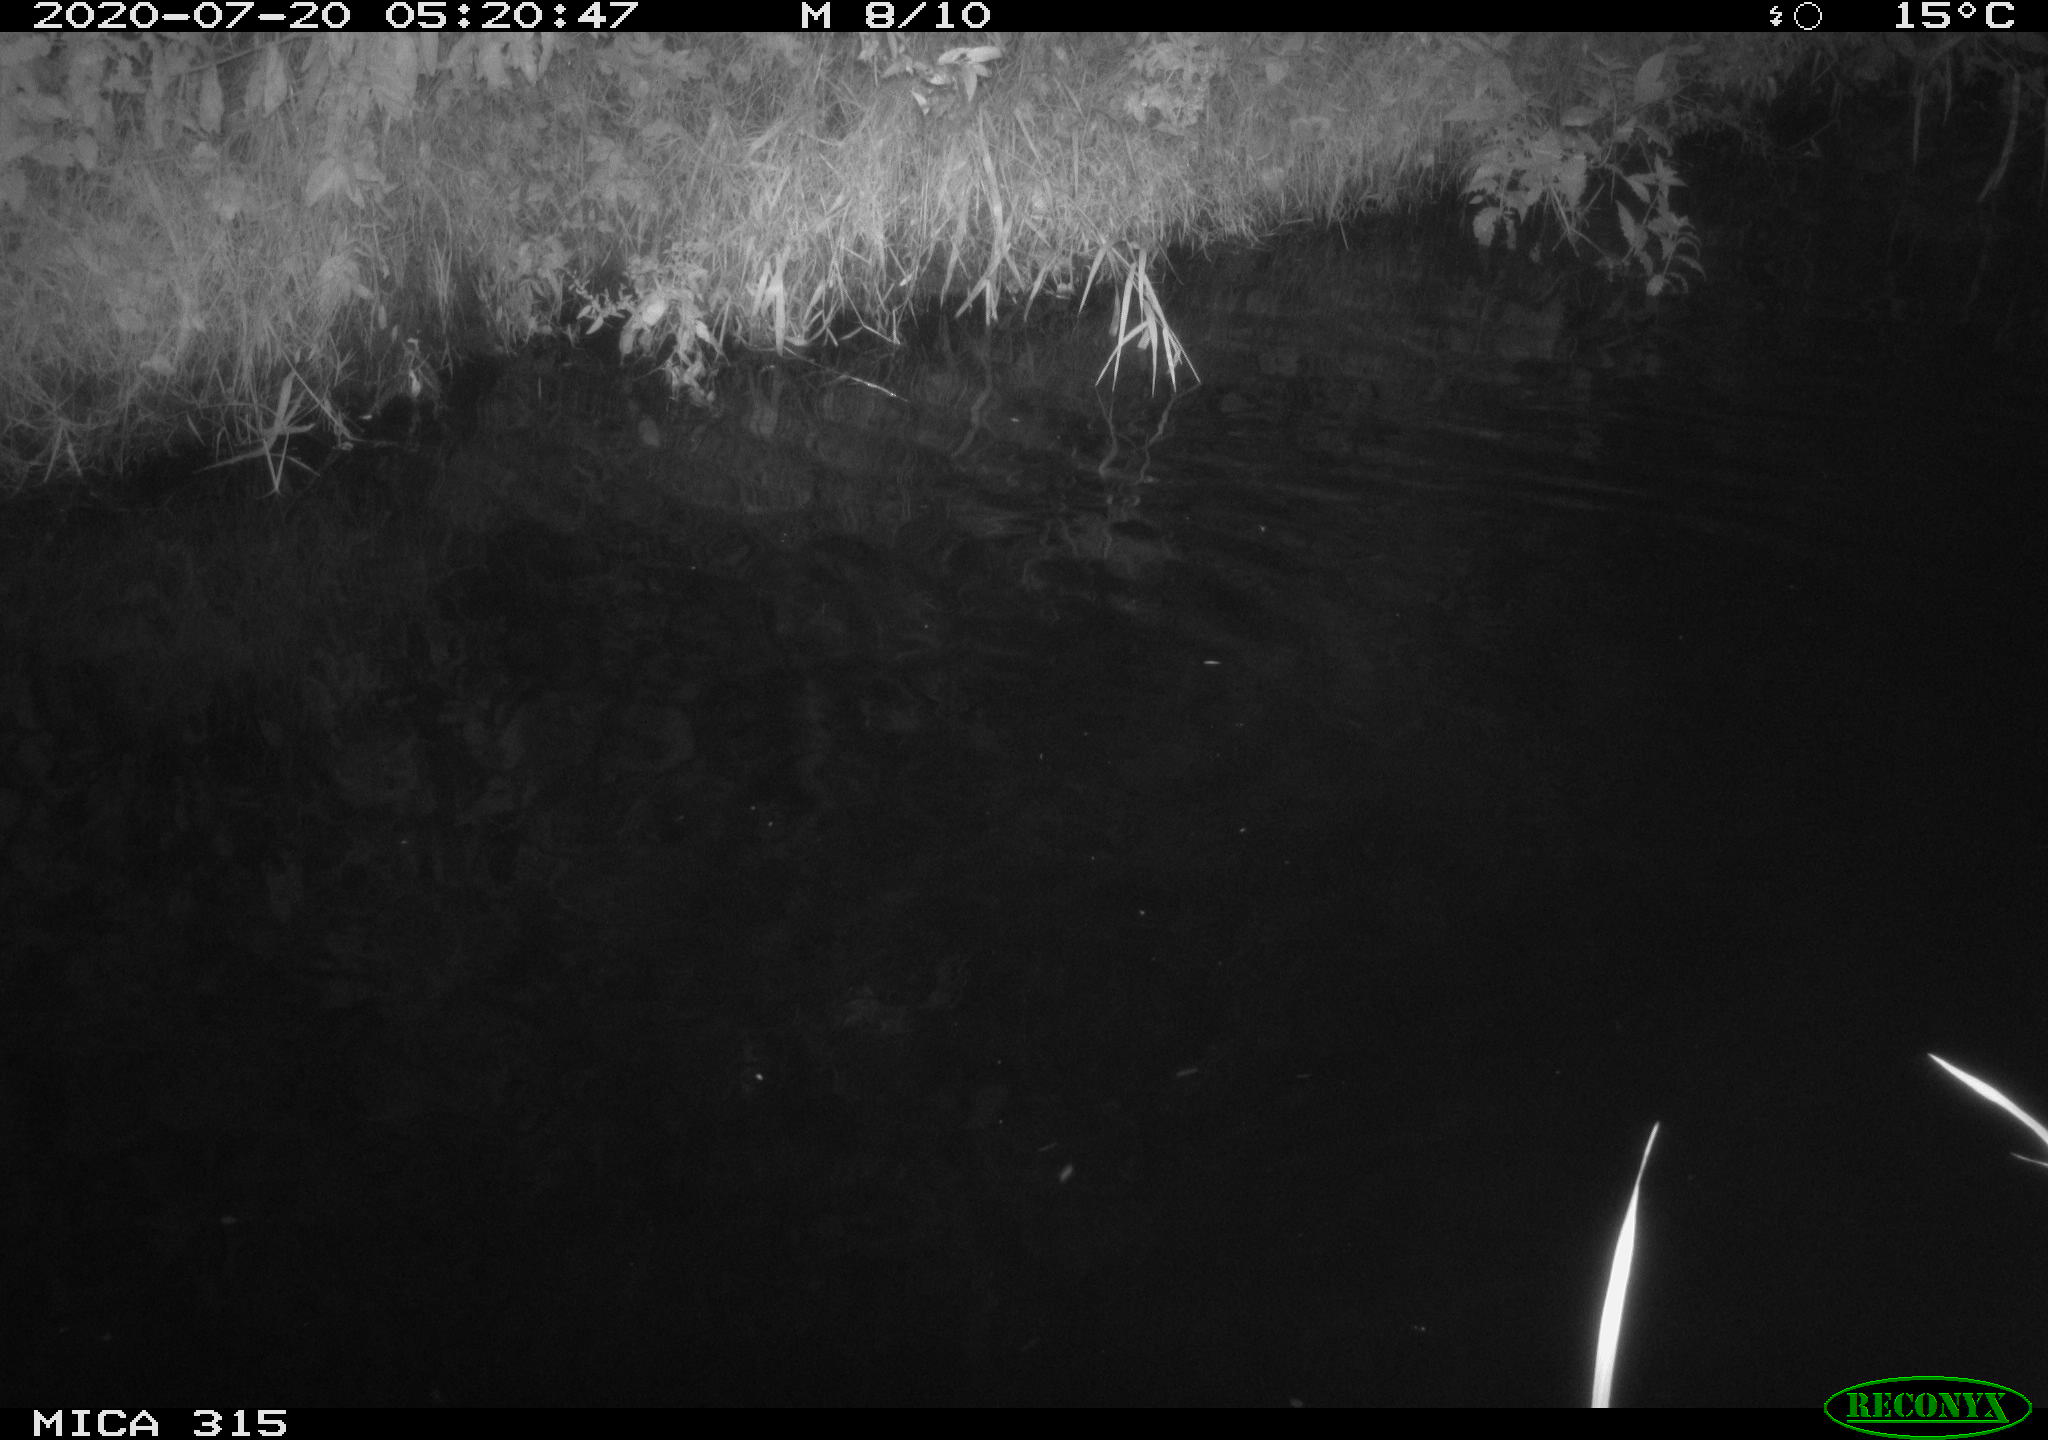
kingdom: Animalia
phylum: Chordata
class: Aves
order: Anseriformes
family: Anatidae
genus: Anas
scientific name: Anas platyrhynchos
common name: Mallard
